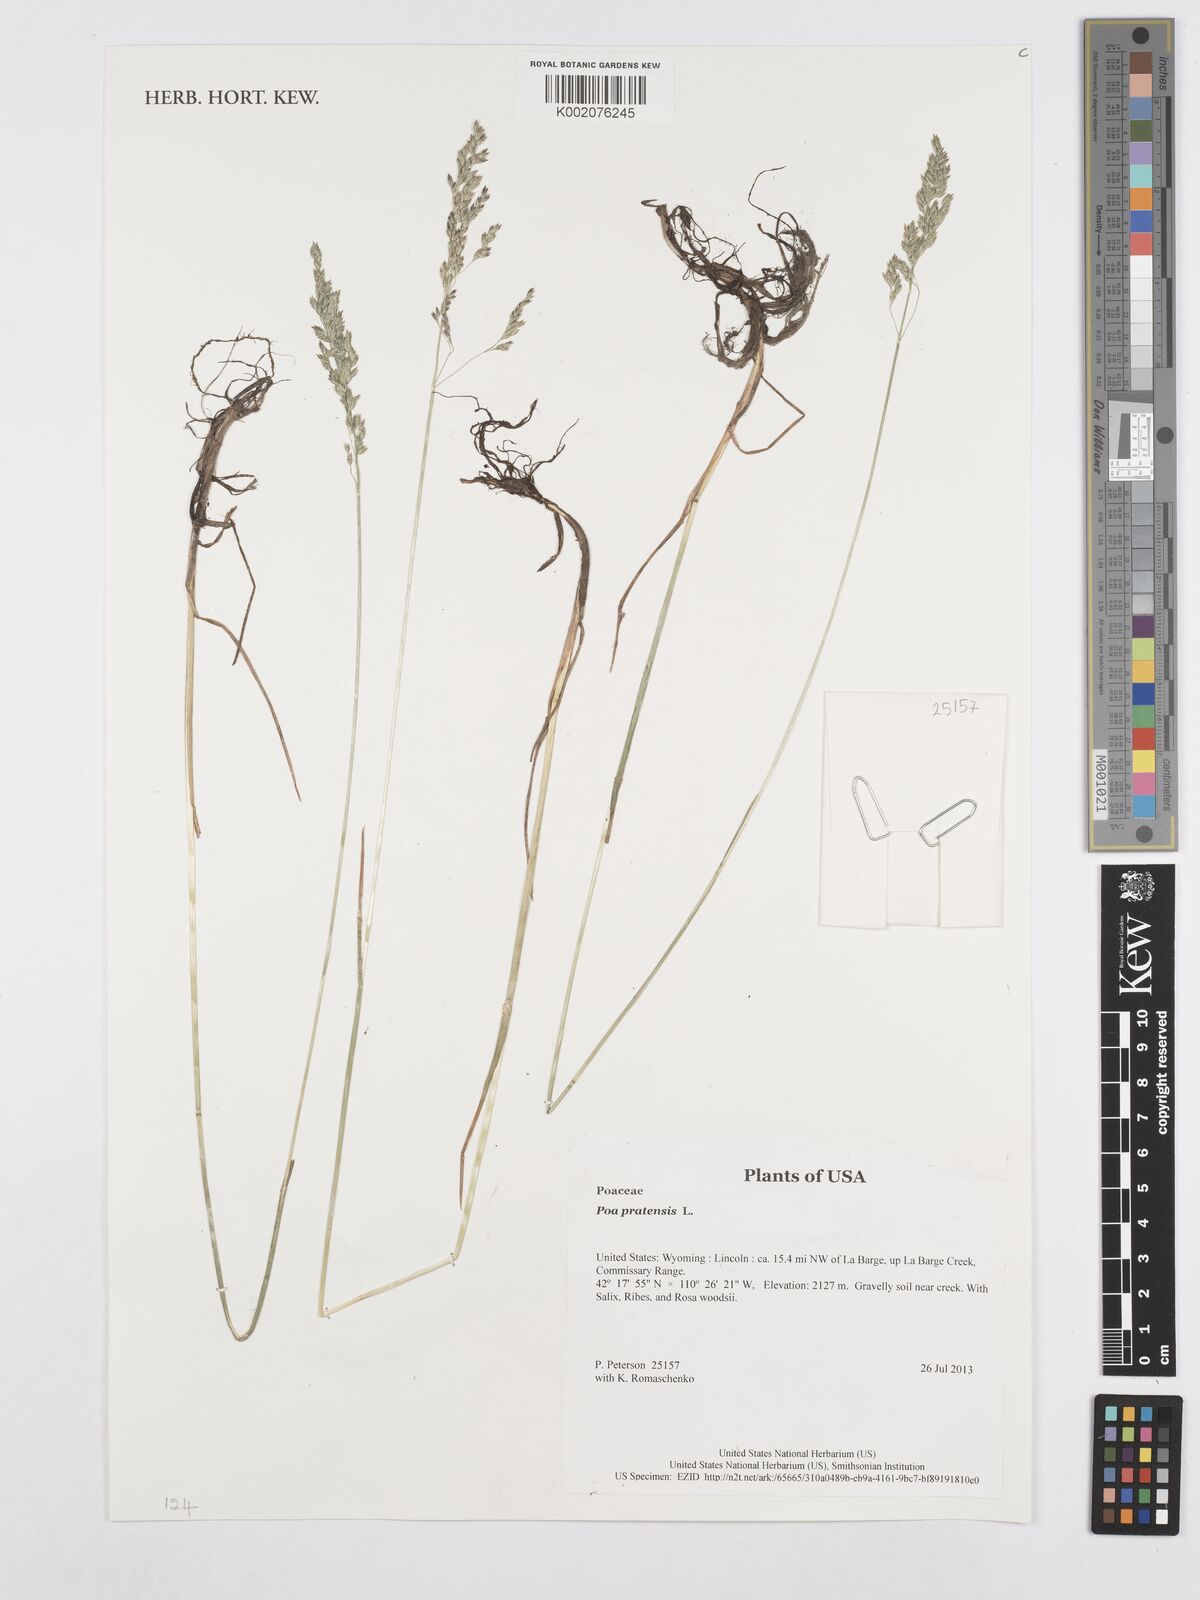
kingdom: Plantae
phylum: Tracheophyta
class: Liliopsida
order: Poales
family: Poaceae
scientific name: Poaceae
